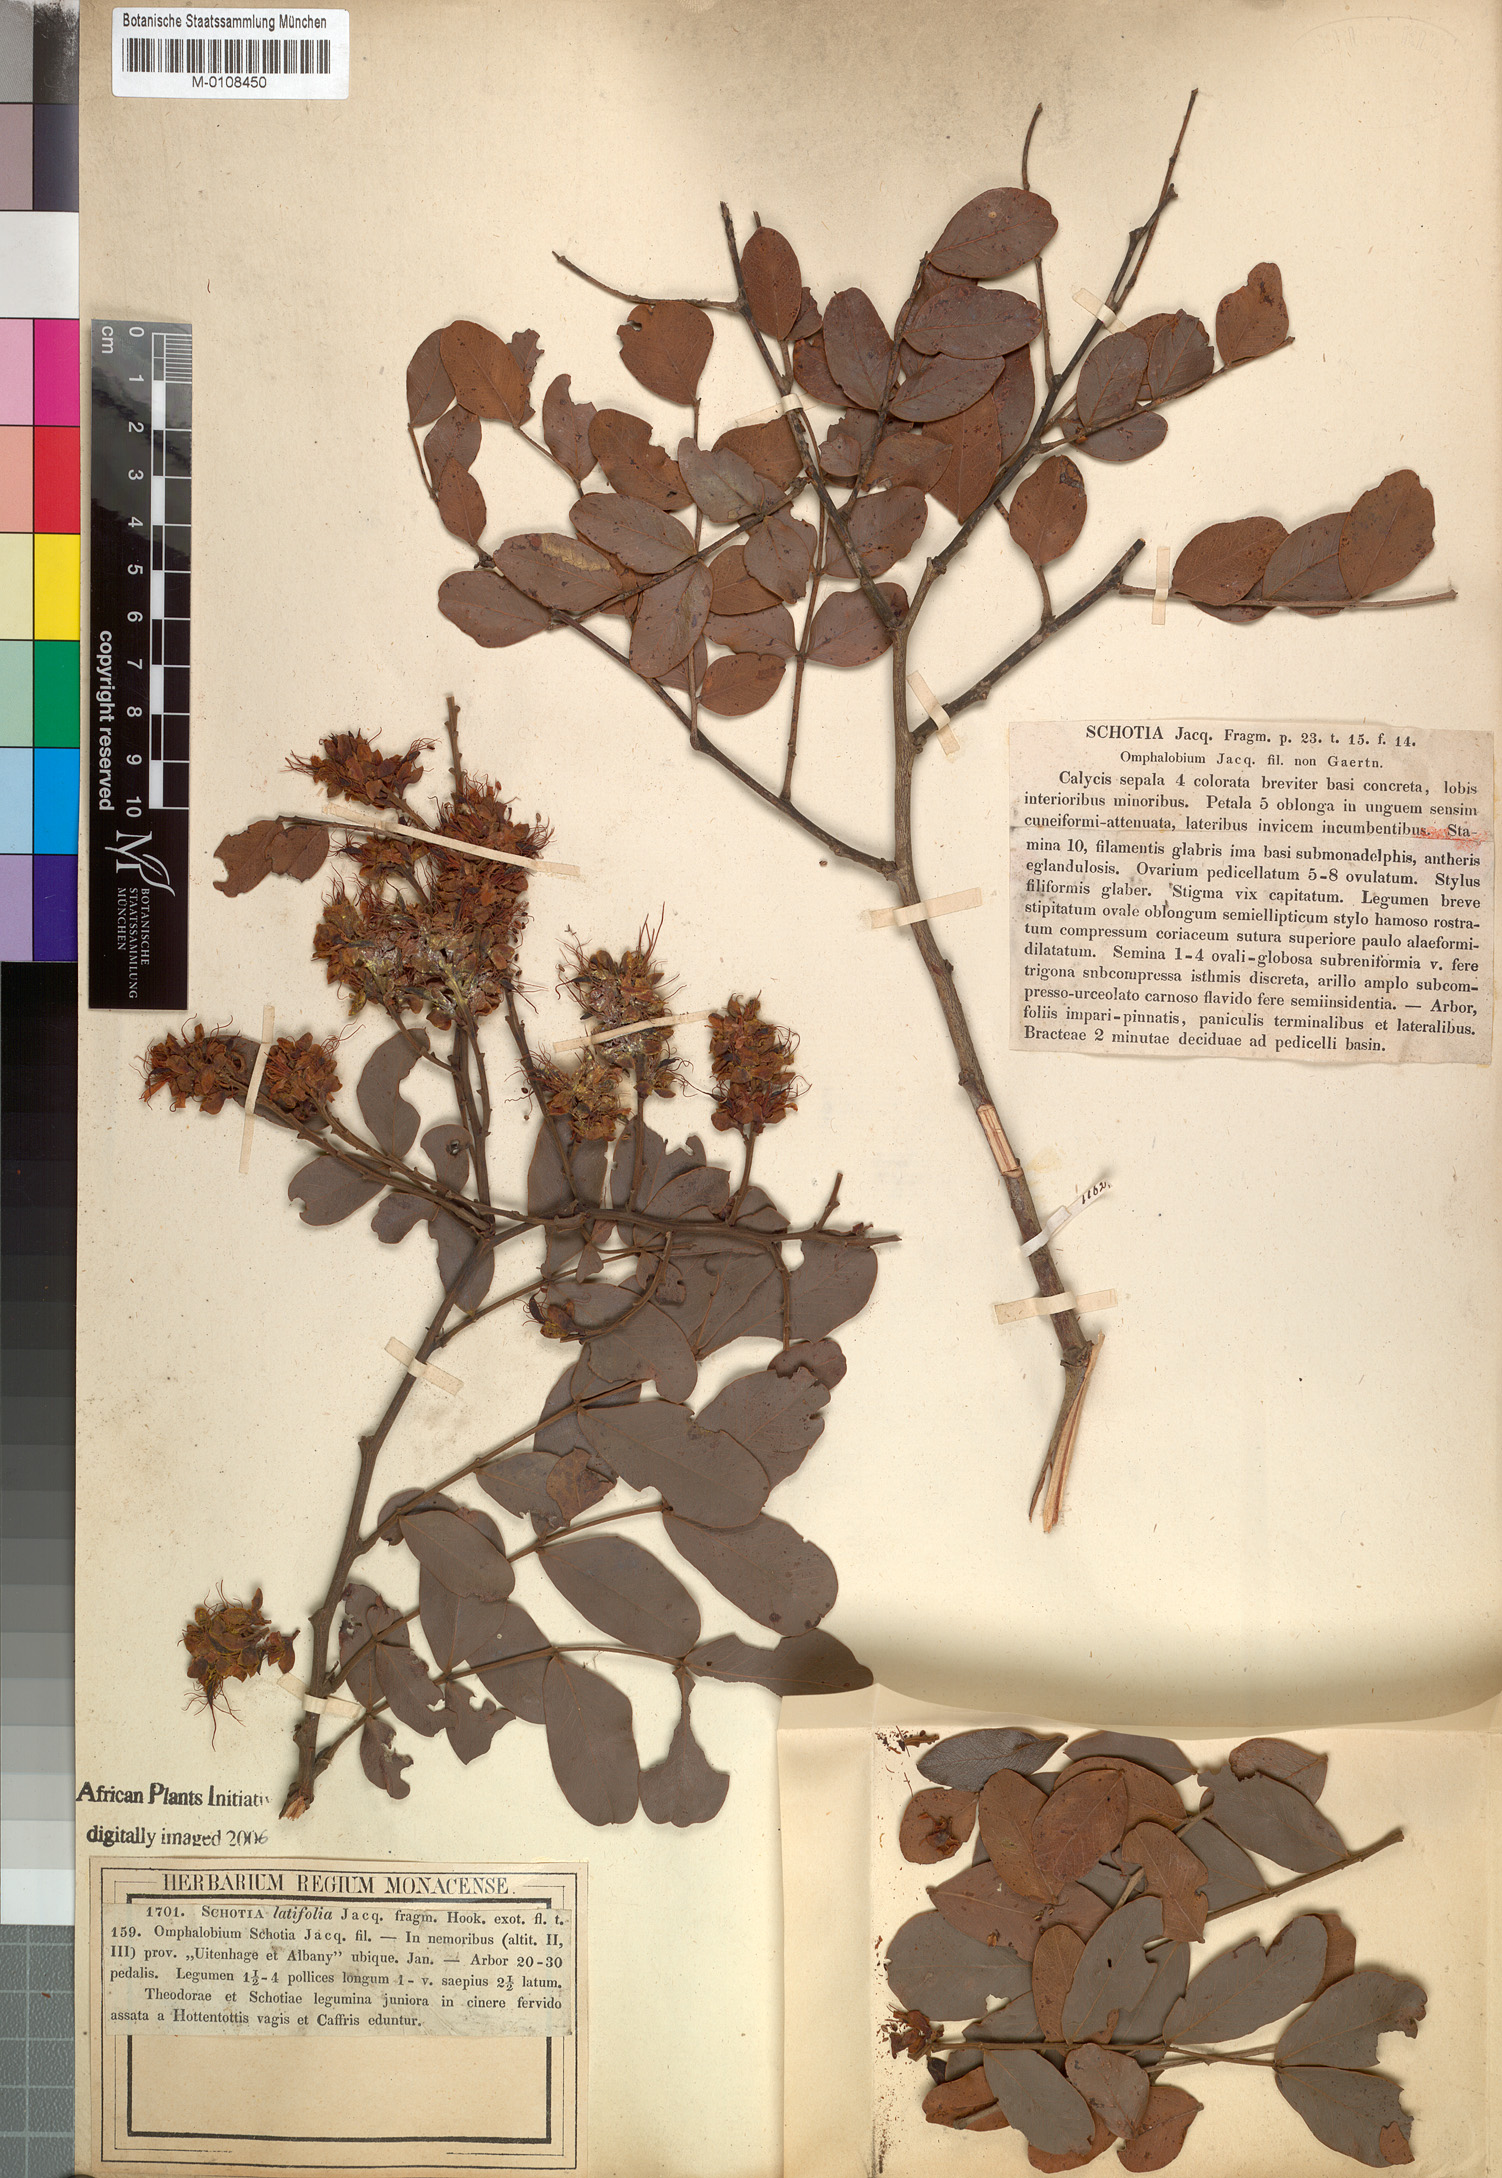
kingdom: Plantae
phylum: Tracheophyta
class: Magnoliopsida
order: Fabales
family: Fabaceae
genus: Schotia
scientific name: Schotia latifolia
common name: Bush boer-bean
